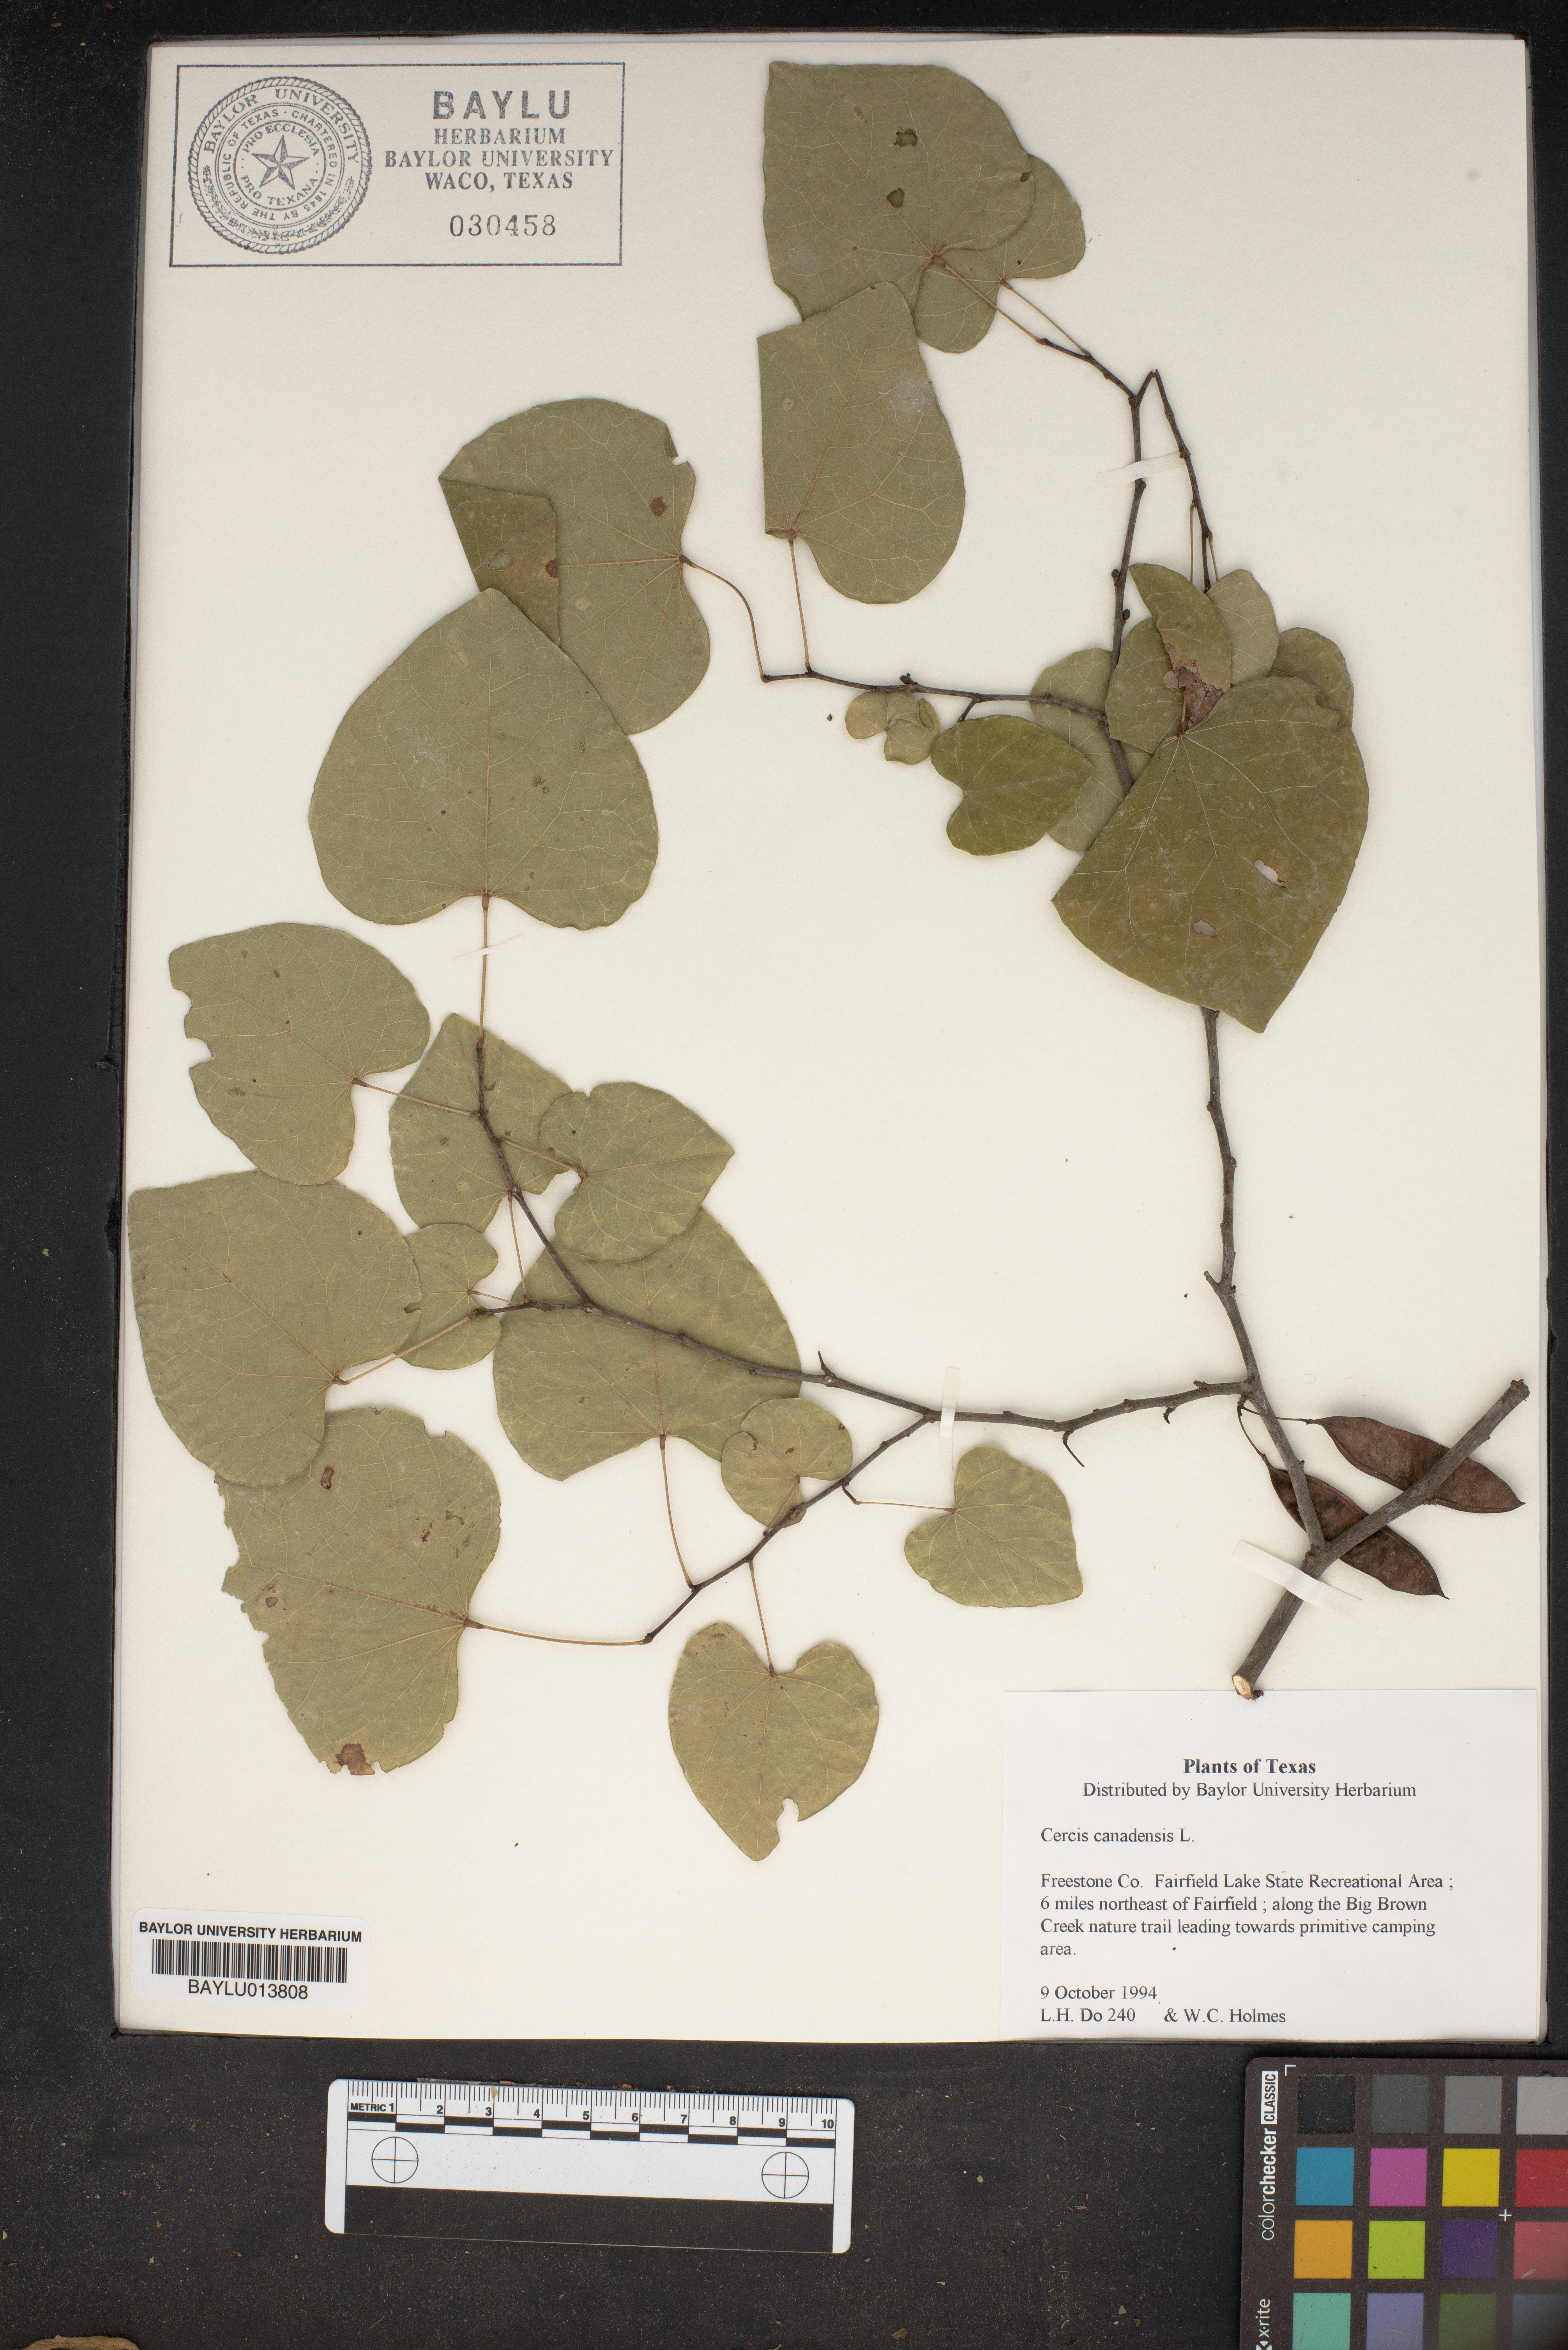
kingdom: Plantae
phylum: Tracheophyta
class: Magnoliopsida
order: Fabales
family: Fabaceae
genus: Cercis
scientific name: Cercis canadensis
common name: Eastern redbud
